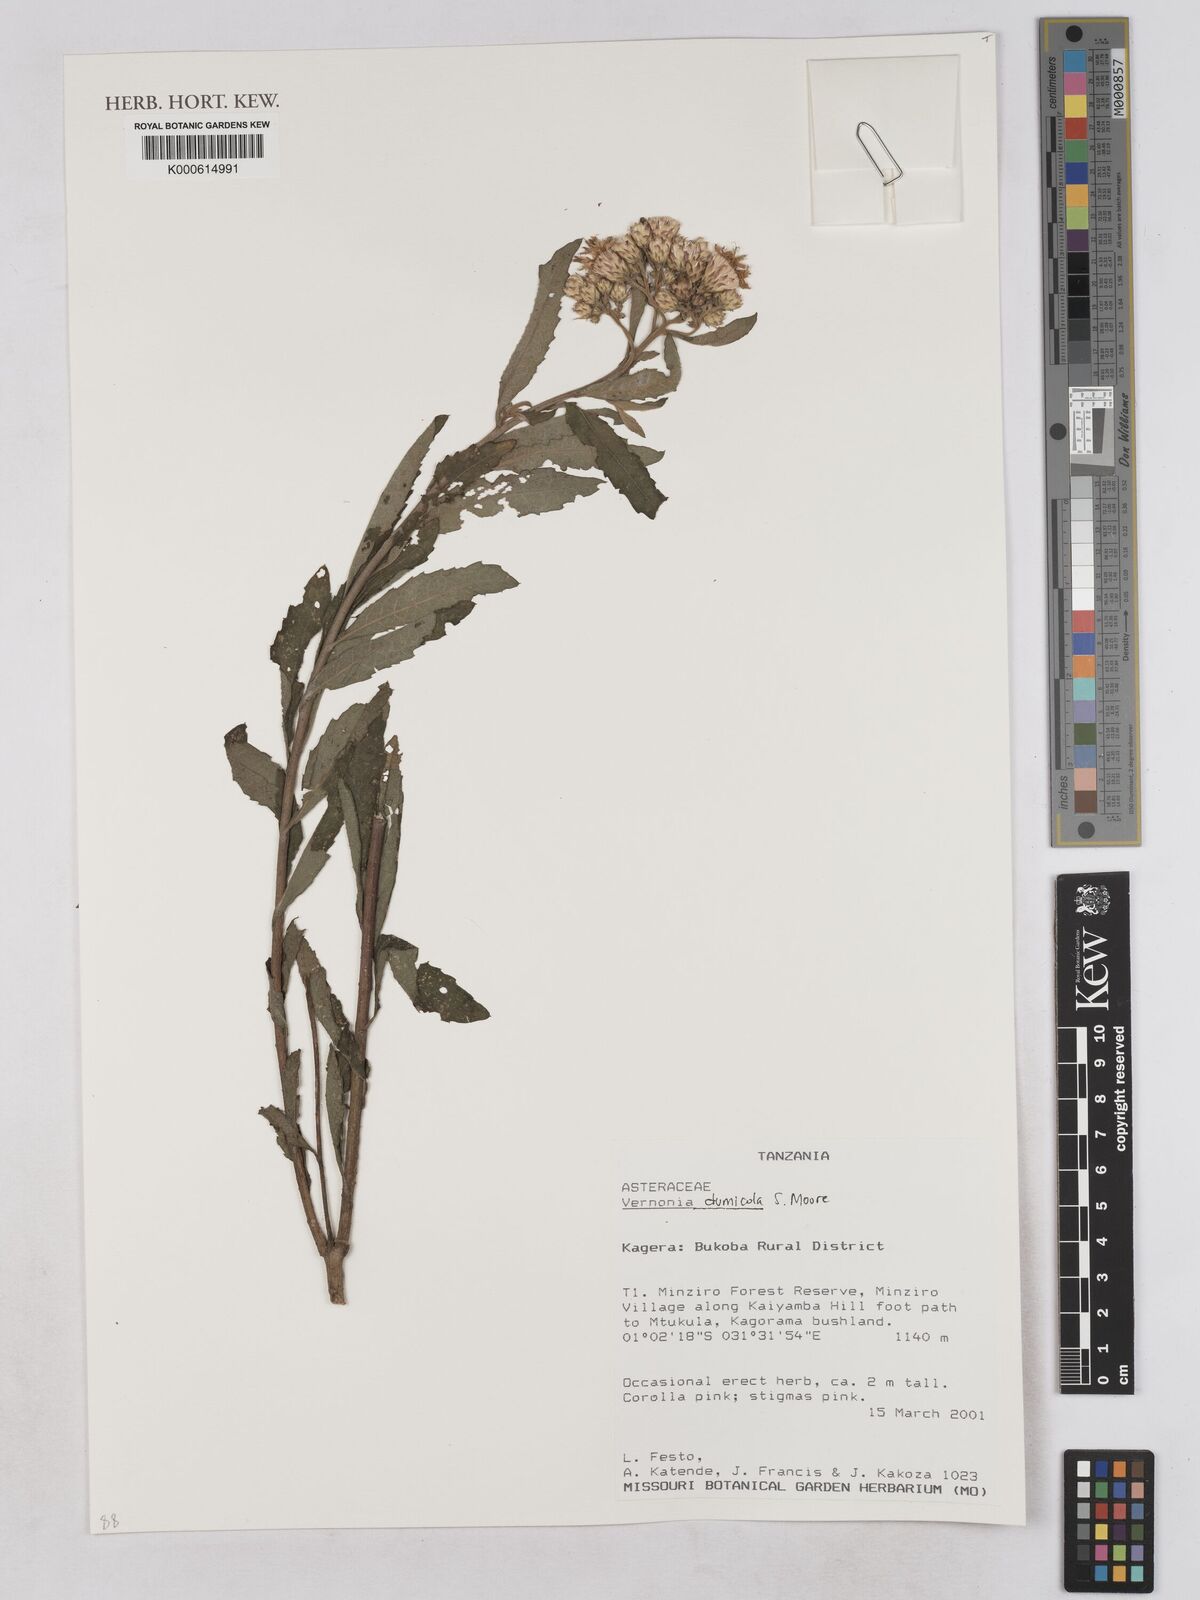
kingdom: Plantae
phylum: Tracheophyta
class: Magnoliopsida
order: Asterales
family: Asteraceae
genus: Baccharoides
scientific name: Baccharoides dumicola
